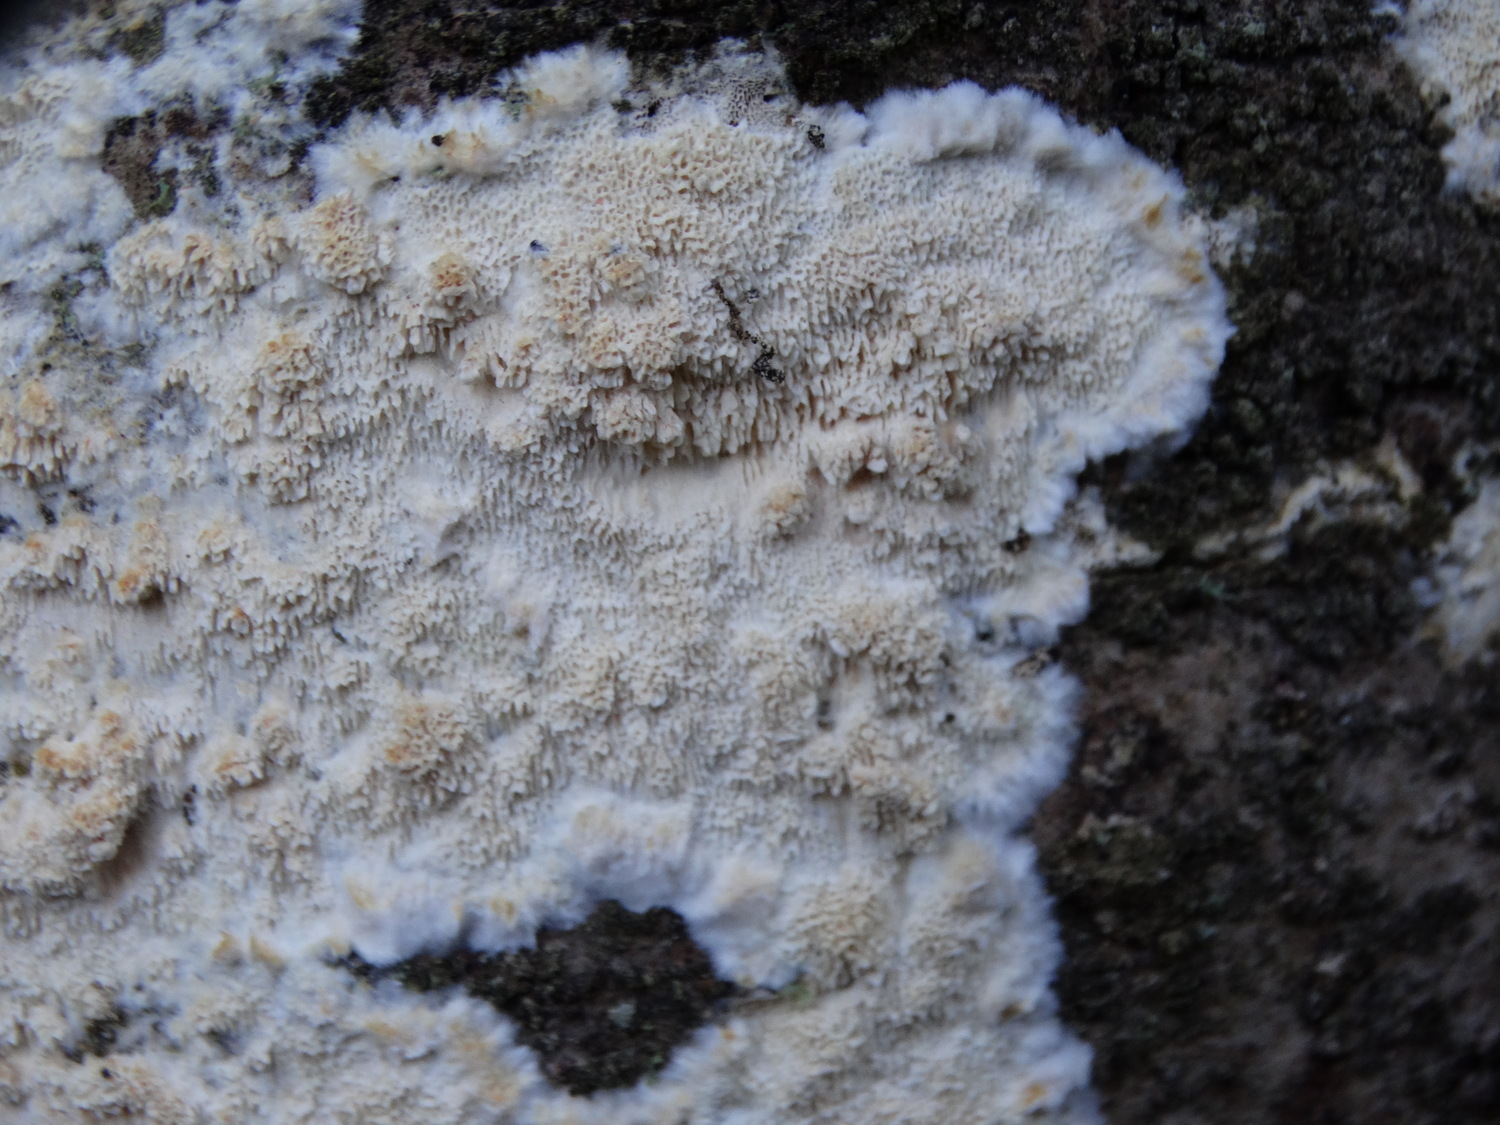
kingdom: Fungi
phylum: Basidiomycota
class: Agaricomycetes
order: Hymenochaetales
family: Schizoporaceae
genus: Xylodon
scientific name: Xylodon
